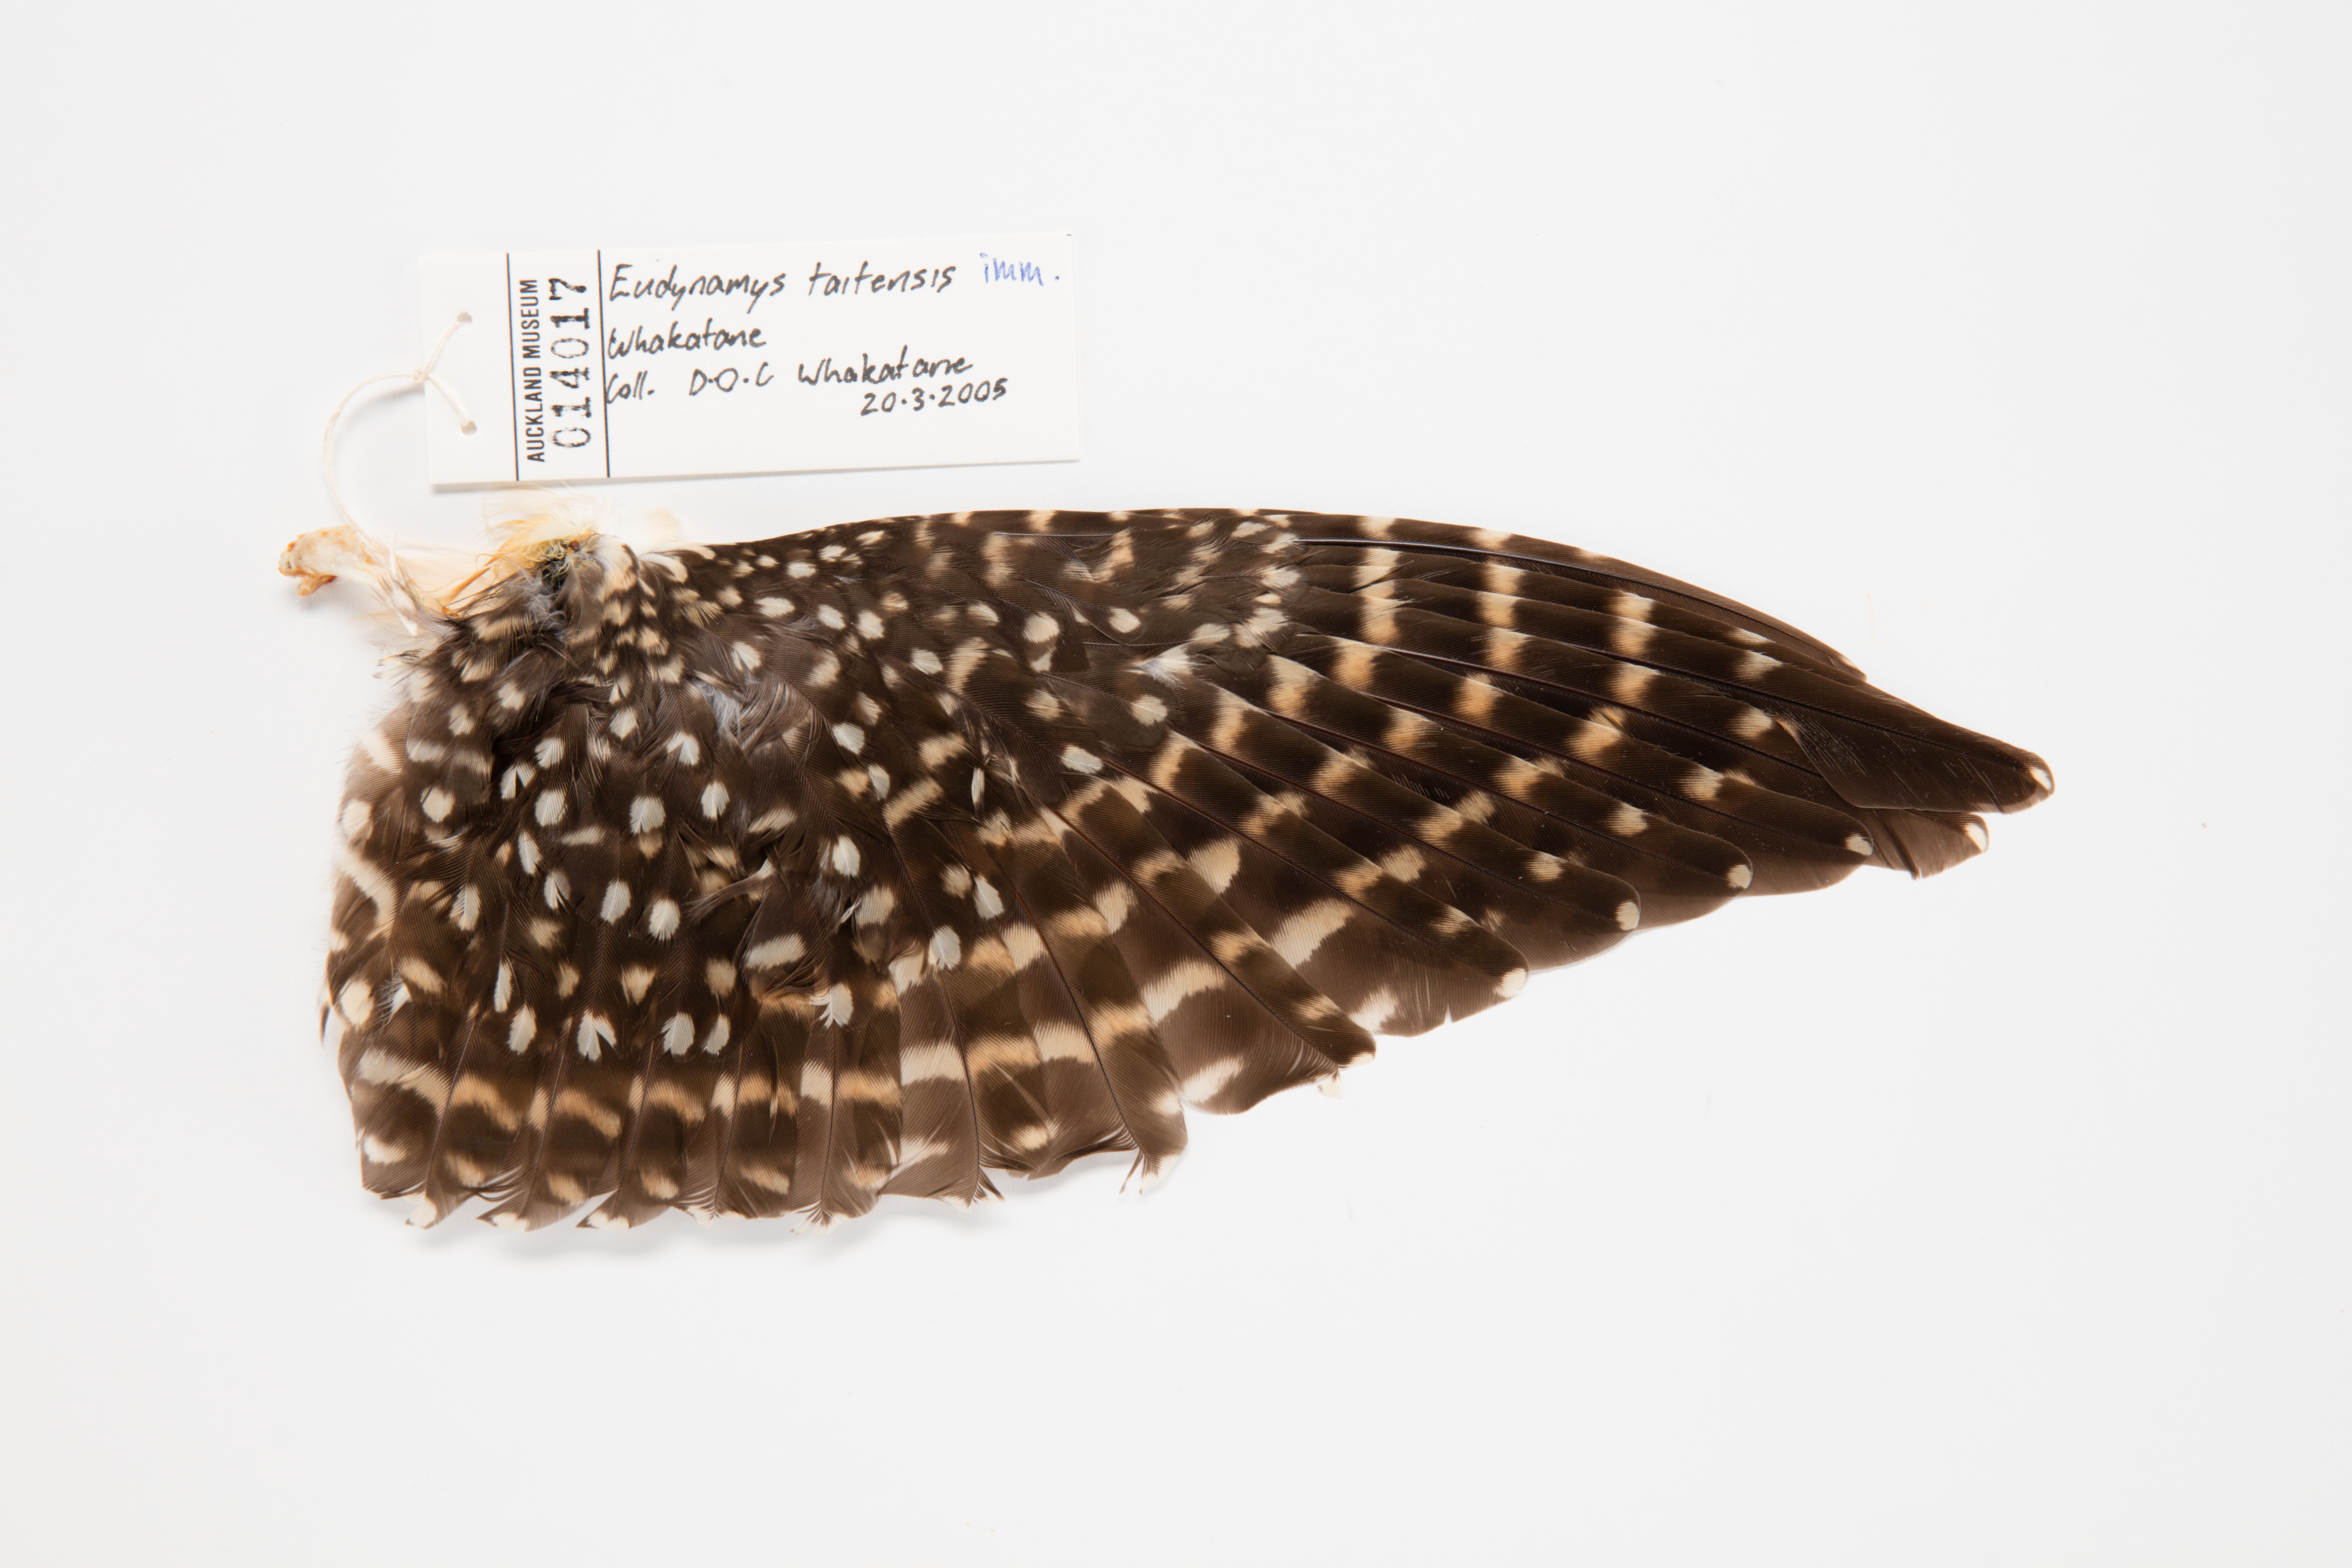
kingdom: Animalia
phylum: Chordata
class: Aves
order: Cuculiformes
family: Cuculidae
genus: Urodynamis
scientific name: Urodynamis taitensis
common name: Long-tailed koel
